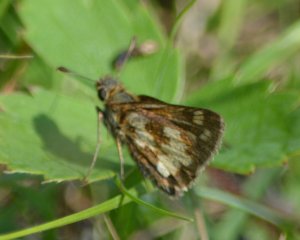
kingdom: Animalia
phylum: Arthropoda
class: Insecta
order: Lepidoptera
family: Hesperiidae
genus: Polites
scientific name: Polites coras
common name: Peck's Skipper
